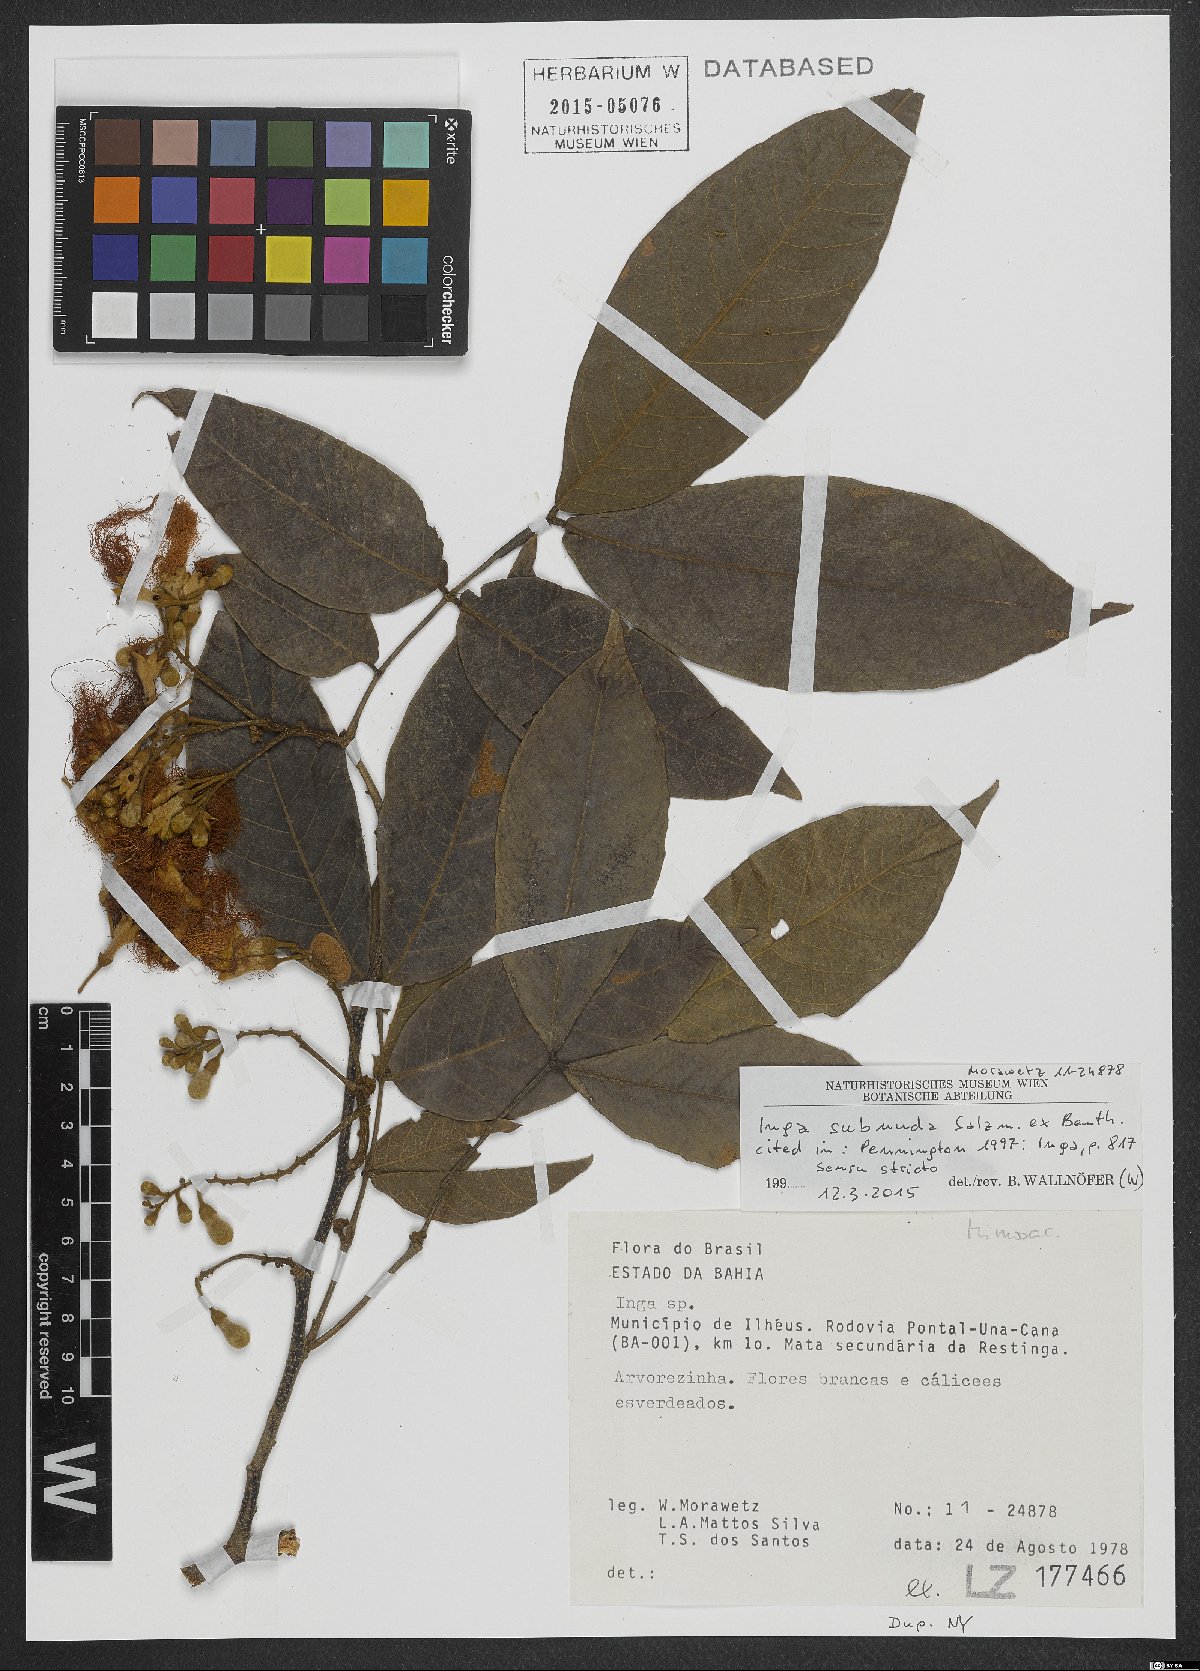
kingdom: Plantae
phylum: Tracheophyta
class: Magnoliopsida
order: Fabales
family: Fabaceae
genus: Inga
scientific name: Inga subnuda
